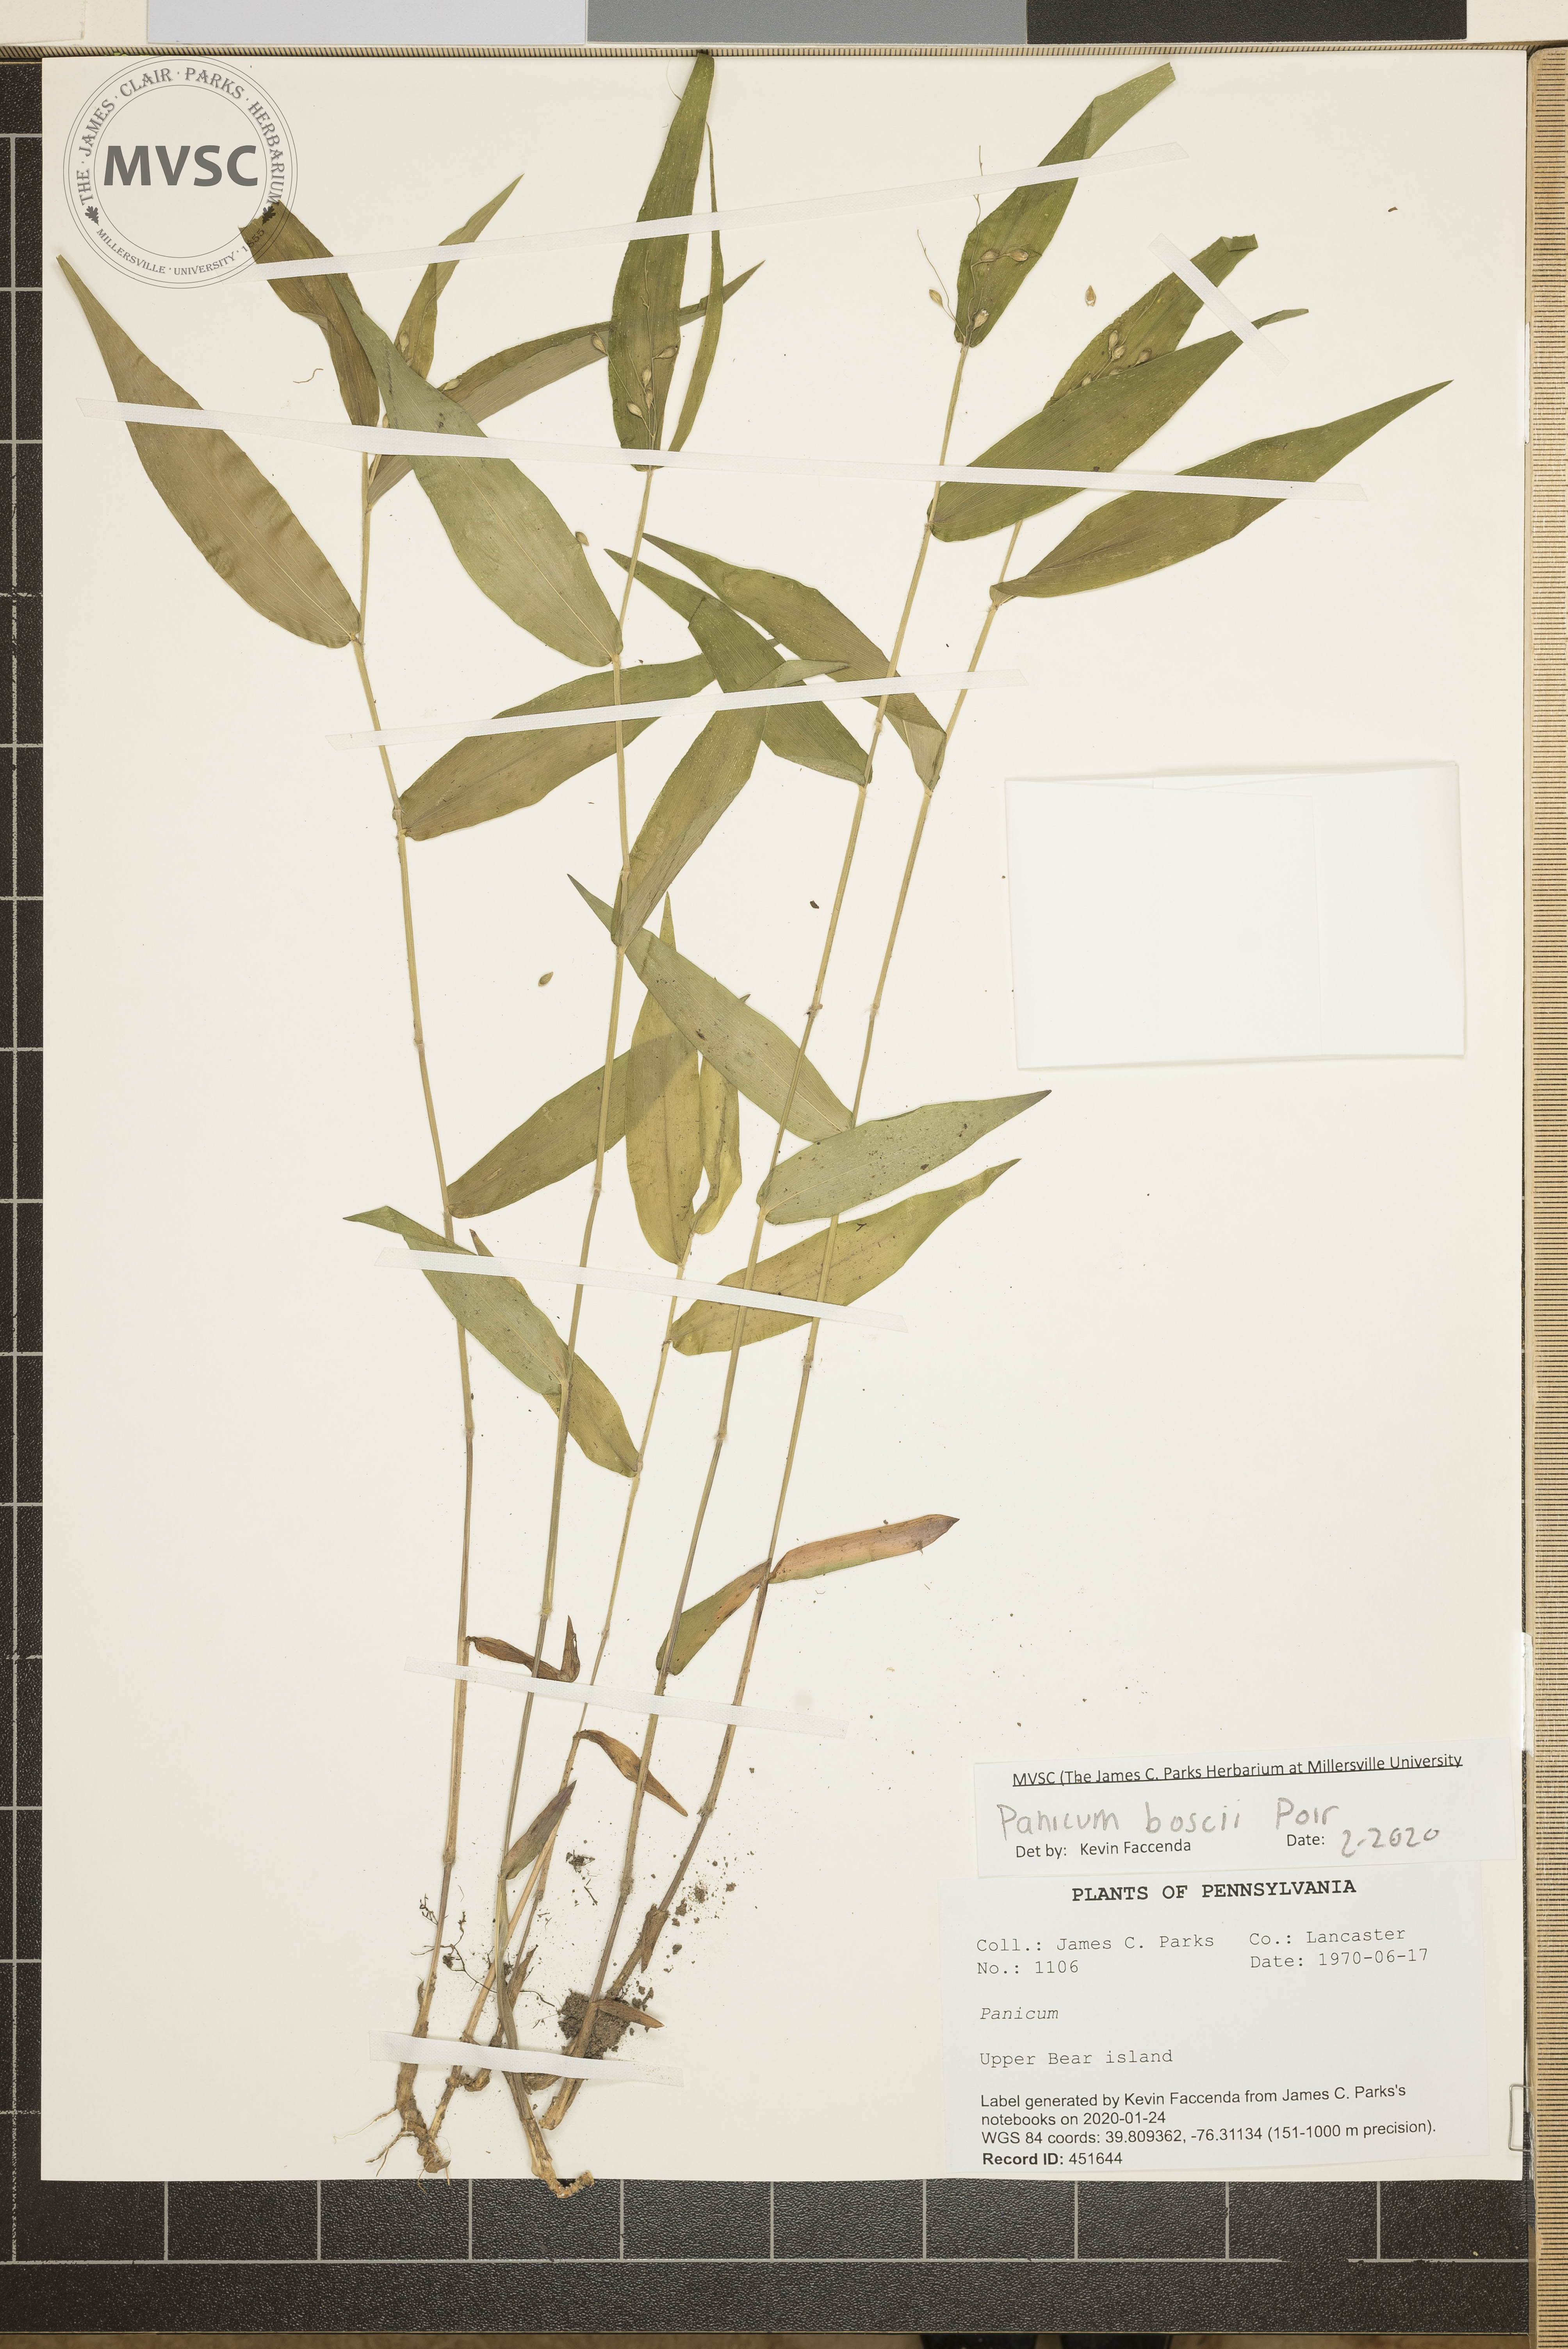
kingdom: Plantae
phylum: Tracheophyta
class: Liliopsida
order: Poales
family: Poaceae
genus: Dichanthelium
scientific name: Dichanthelium boscii
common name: Bosc's panic grass
